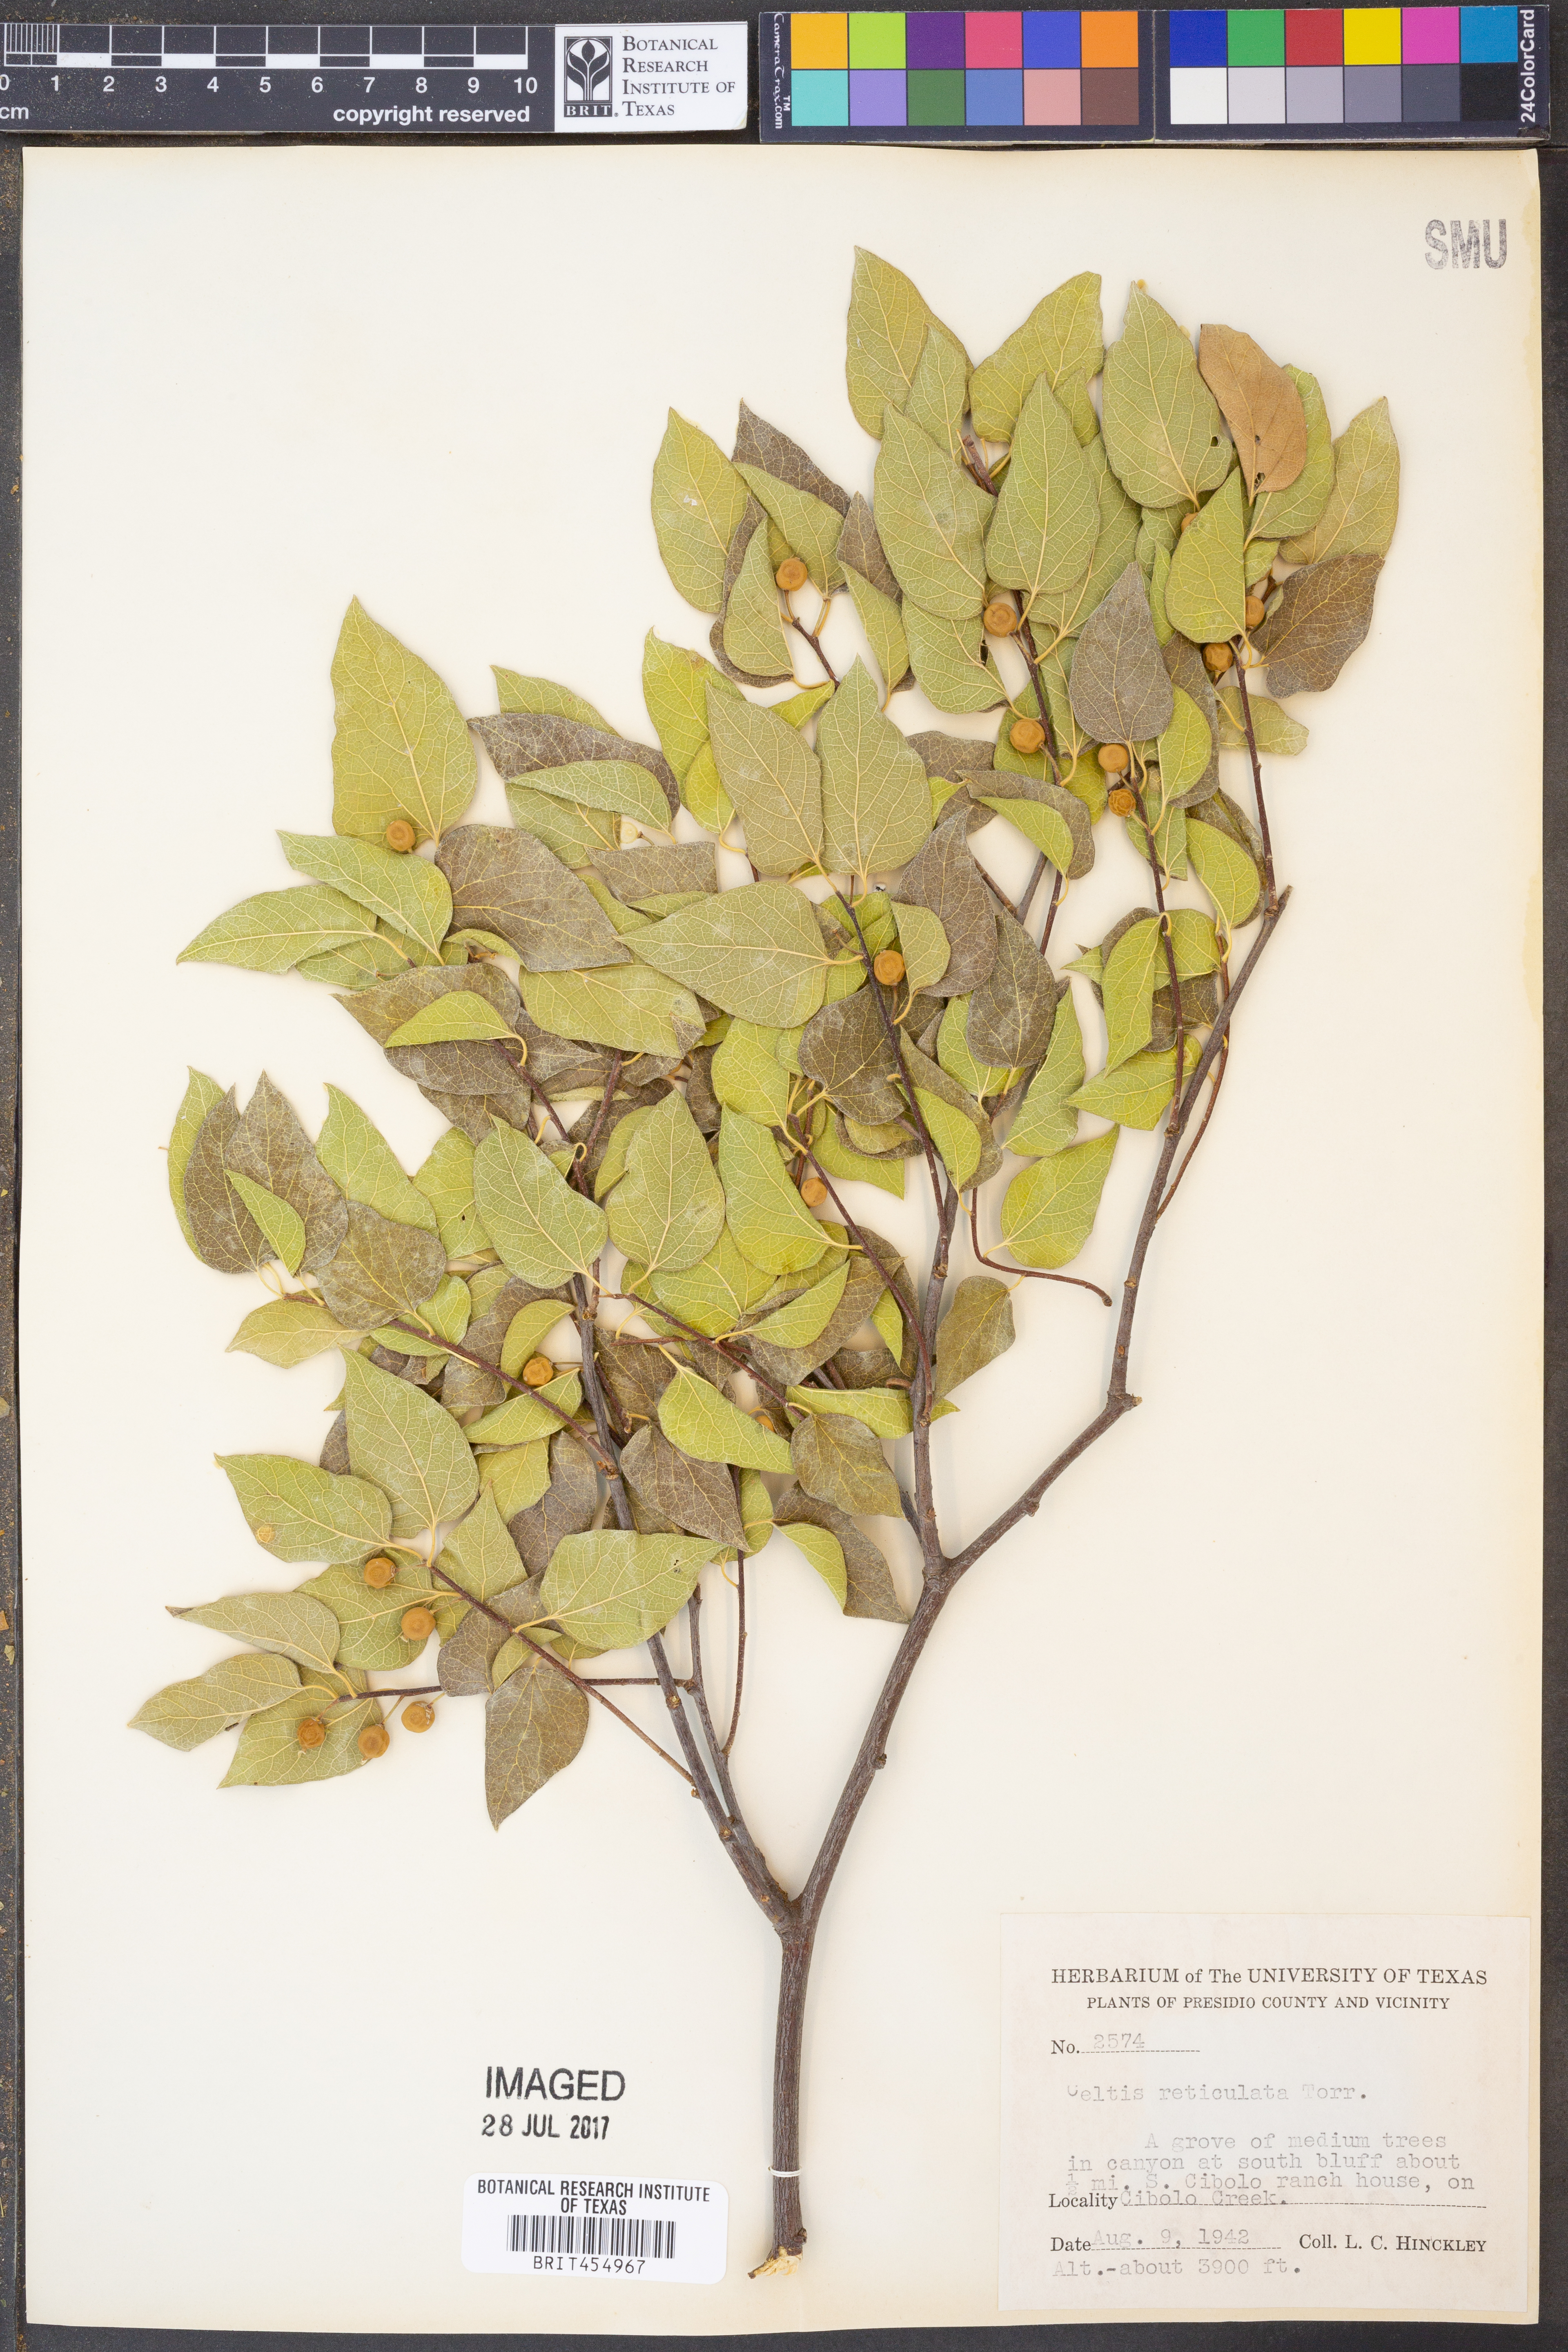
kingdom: Plantae
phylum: Tracheophyta
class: Magnoliopsida
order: Rosales
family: Cannabaceae
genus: Celtis
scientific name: Celtis reticulata
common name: Netleaf hackberry
